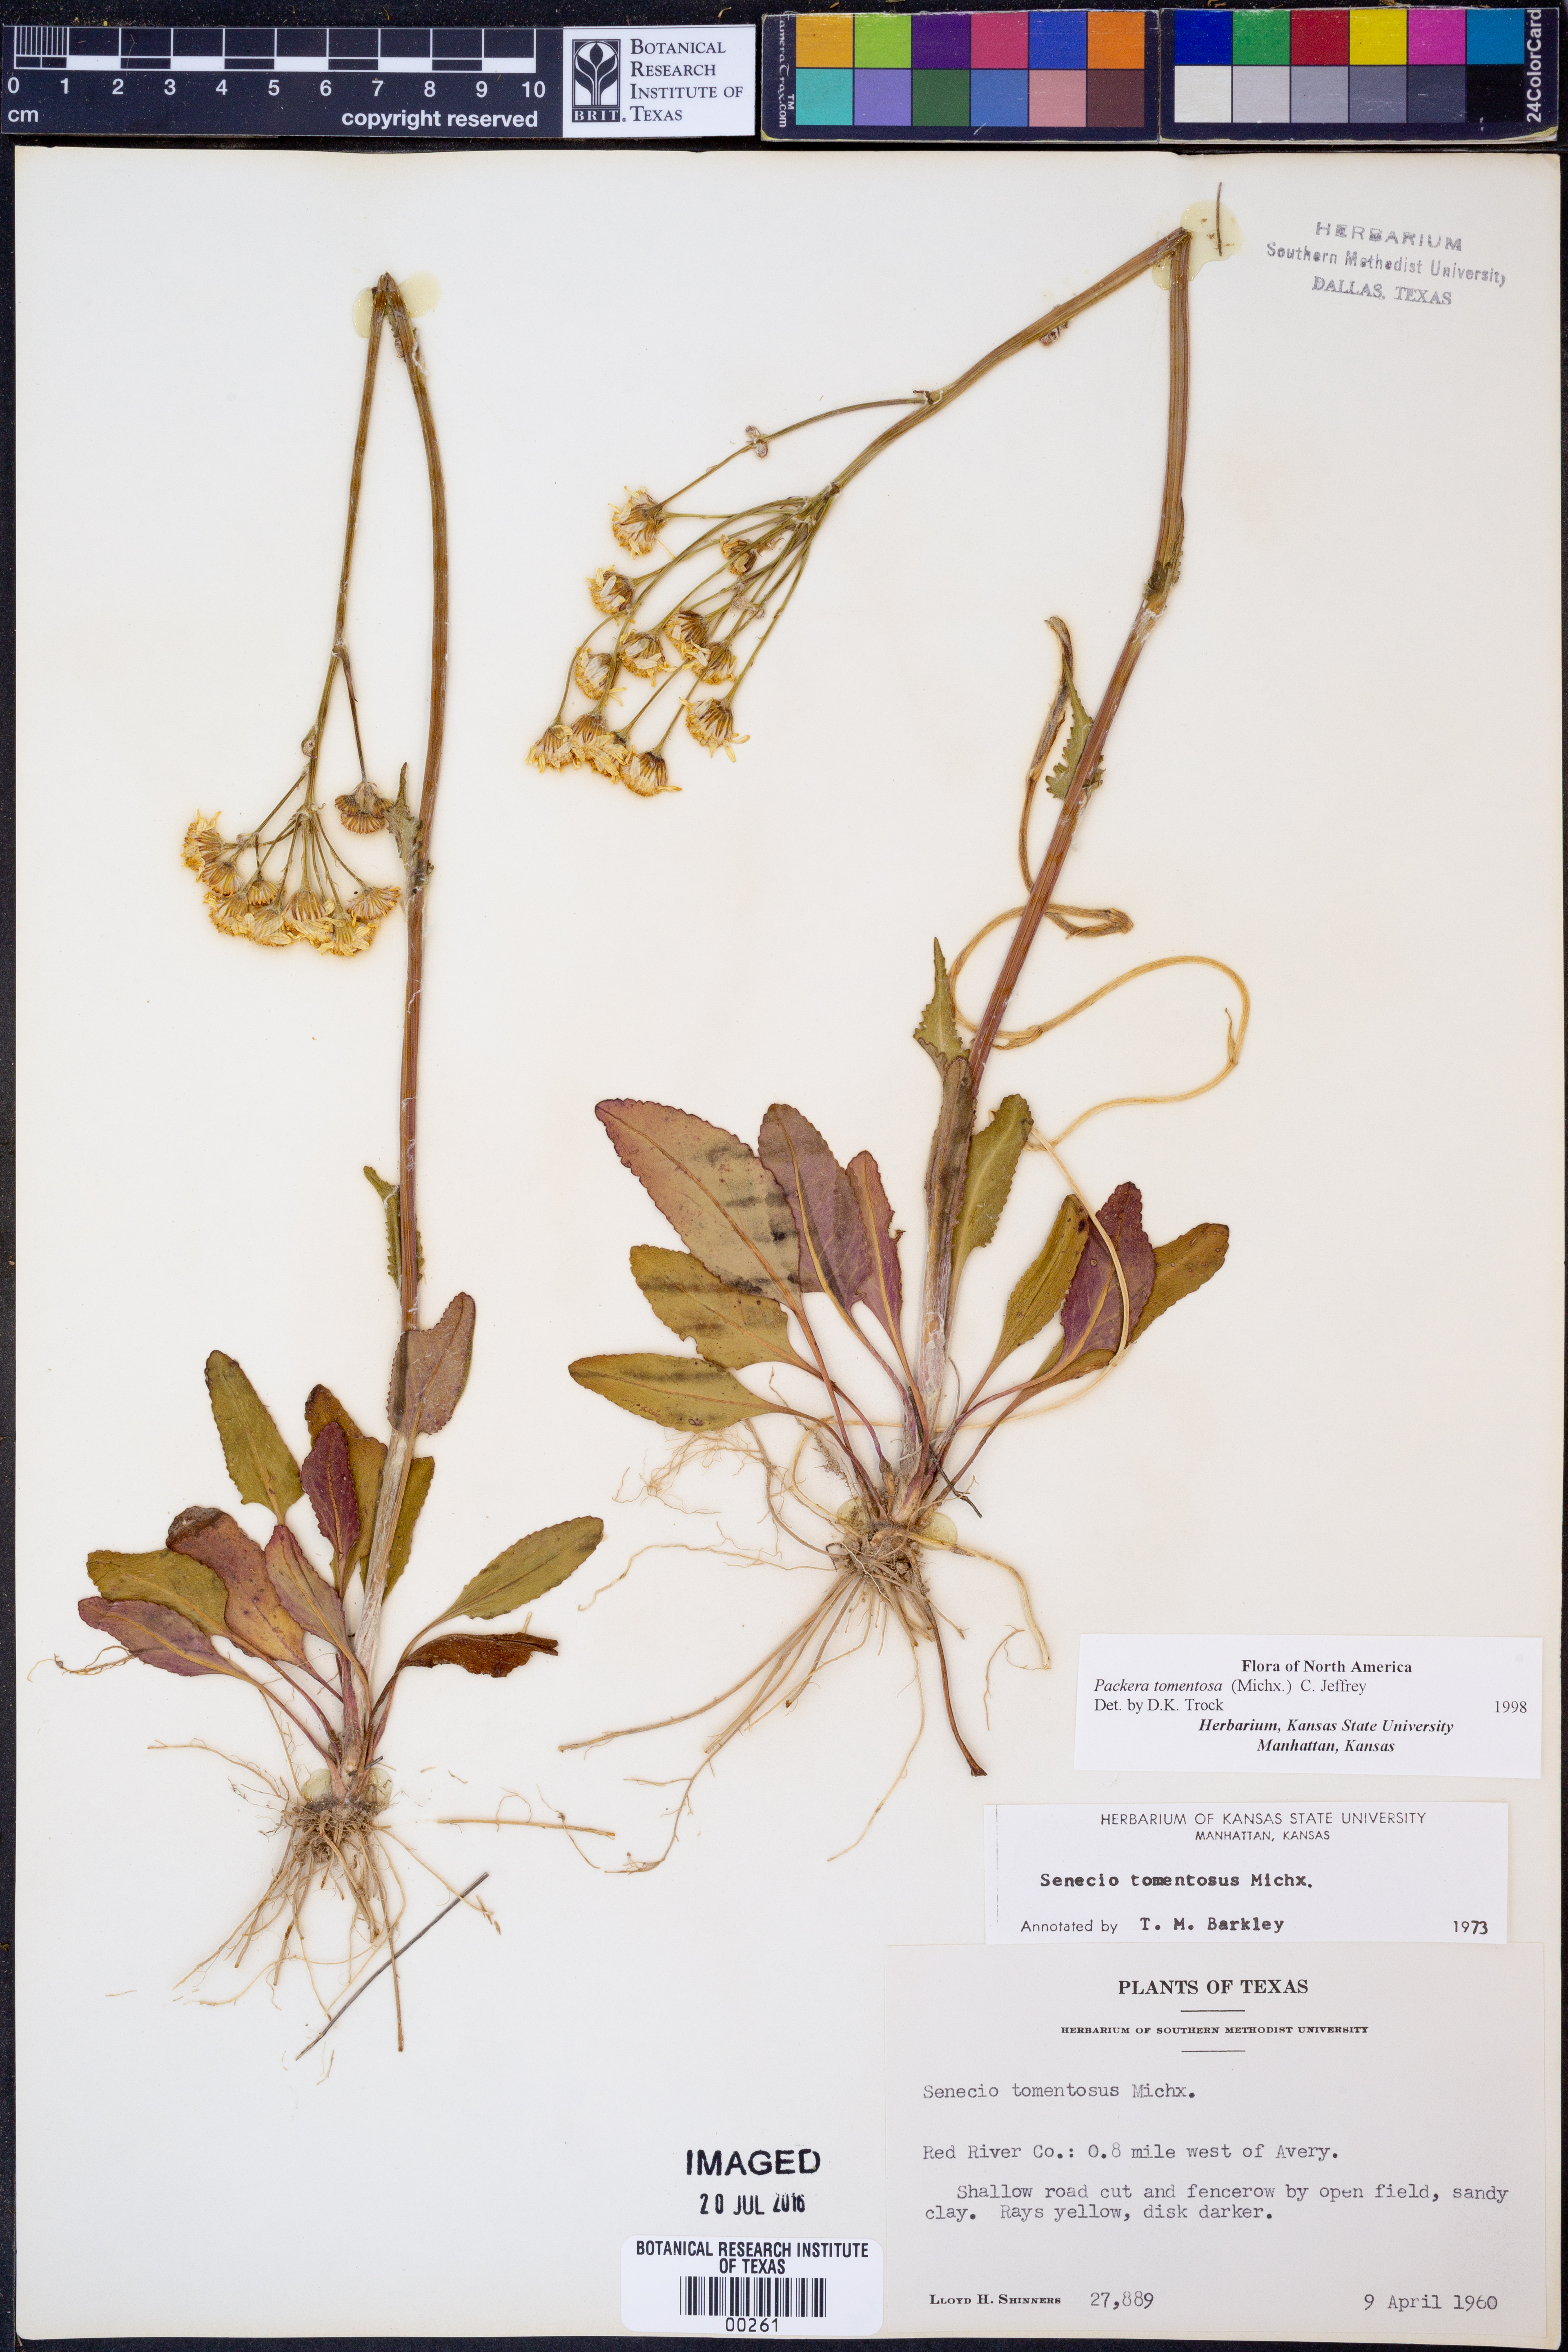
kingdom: Plantae
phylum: Tracheophyta
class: Magnoliopsida
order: Asterales
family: Asteraceae
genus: Packera
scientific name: Packera dubia
